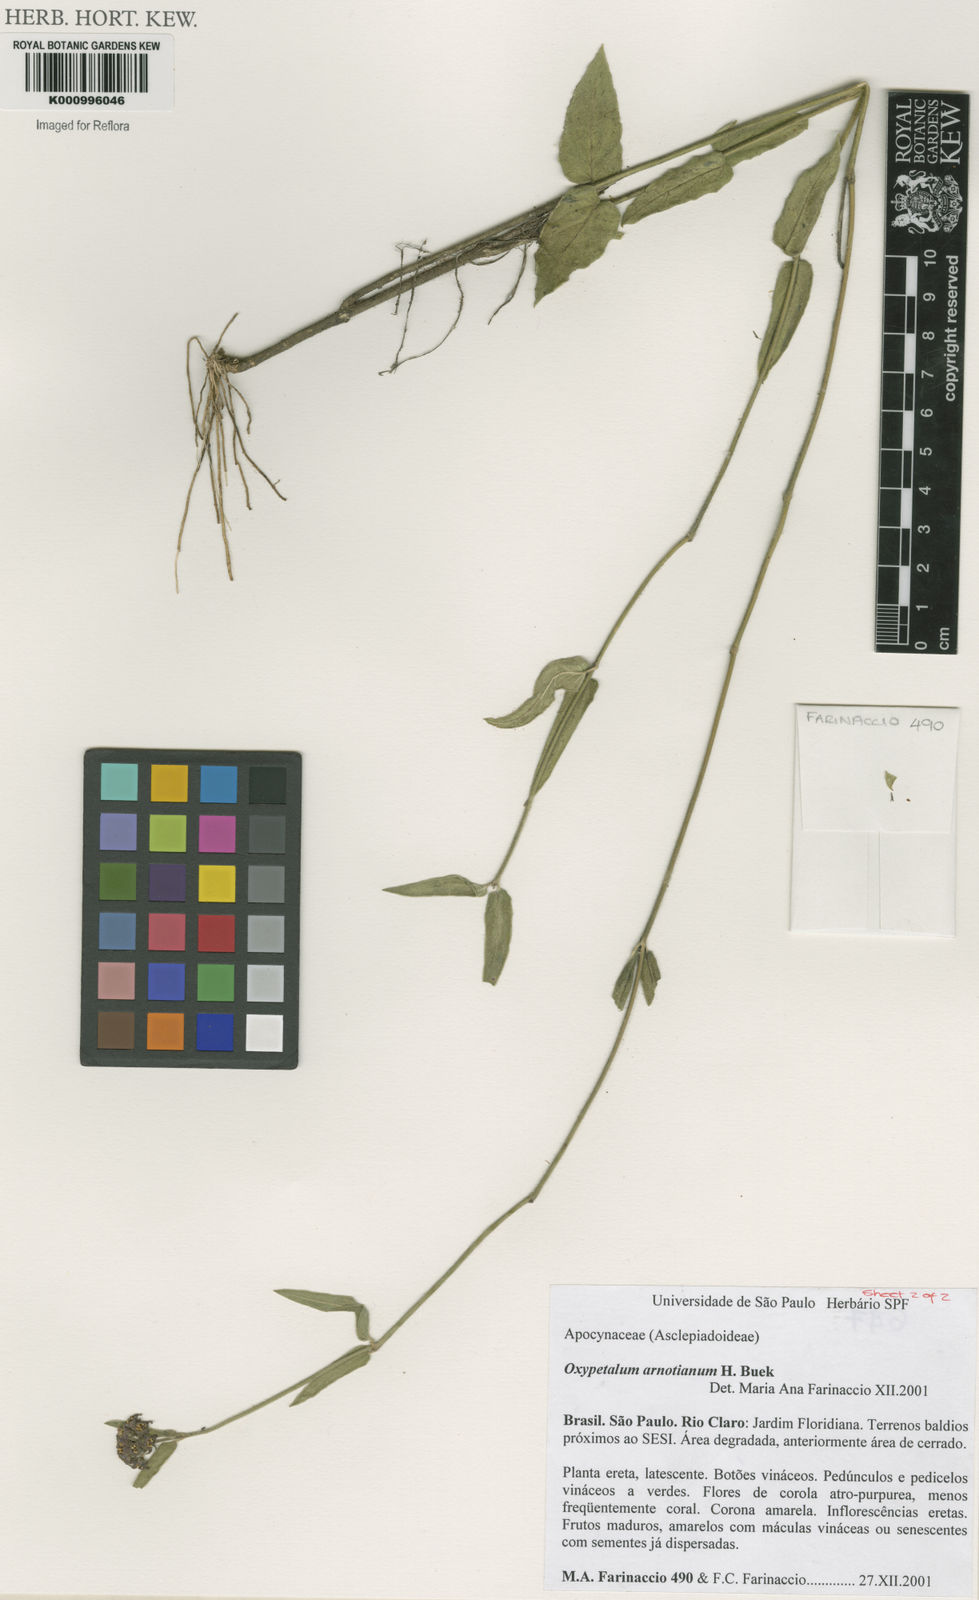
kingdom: Plantae
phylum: Tracheophyta
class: Magnoliopsida
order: Gentianales
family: Apocynaceae
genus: Oxypetalum
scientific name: Oxypetalum
